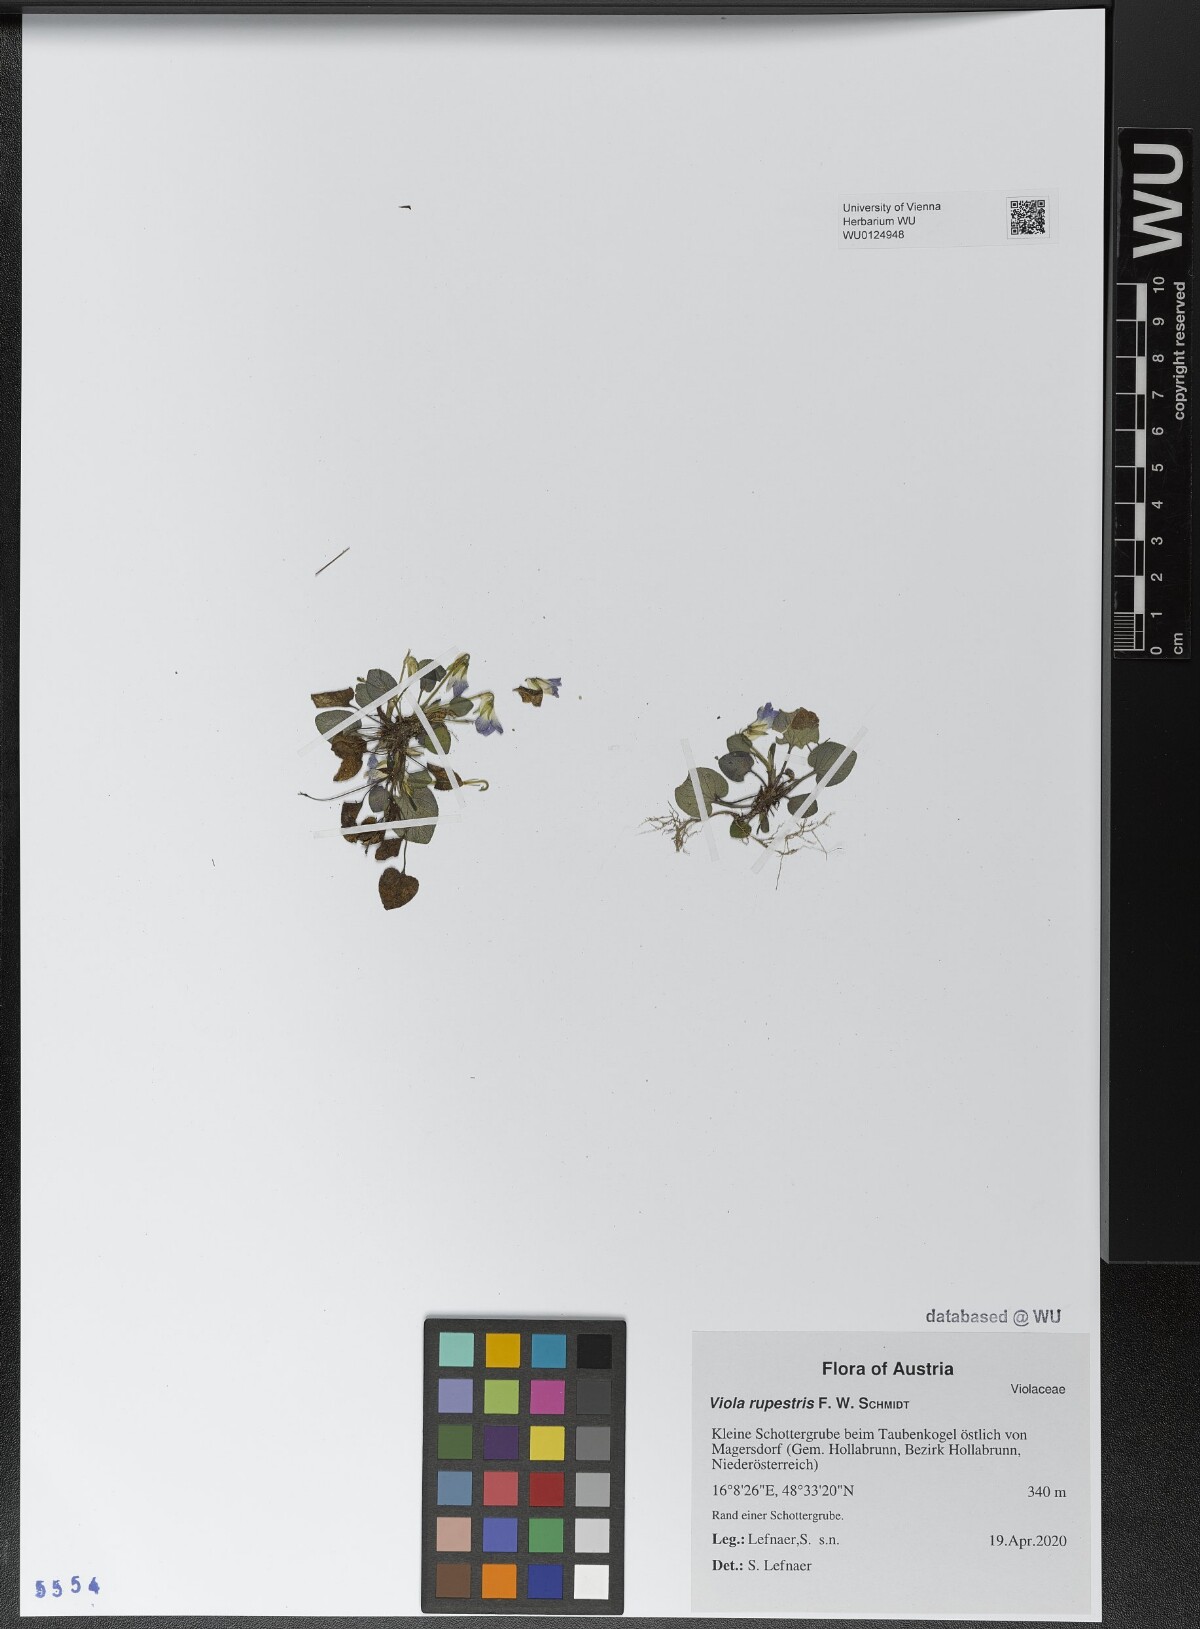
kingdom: Plantae
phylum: Tracheophyta
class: Magnoliopsida
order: Malpighiales
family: Violaceae
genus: Viola
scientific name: Viola rupestris
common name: Teesdale violet
